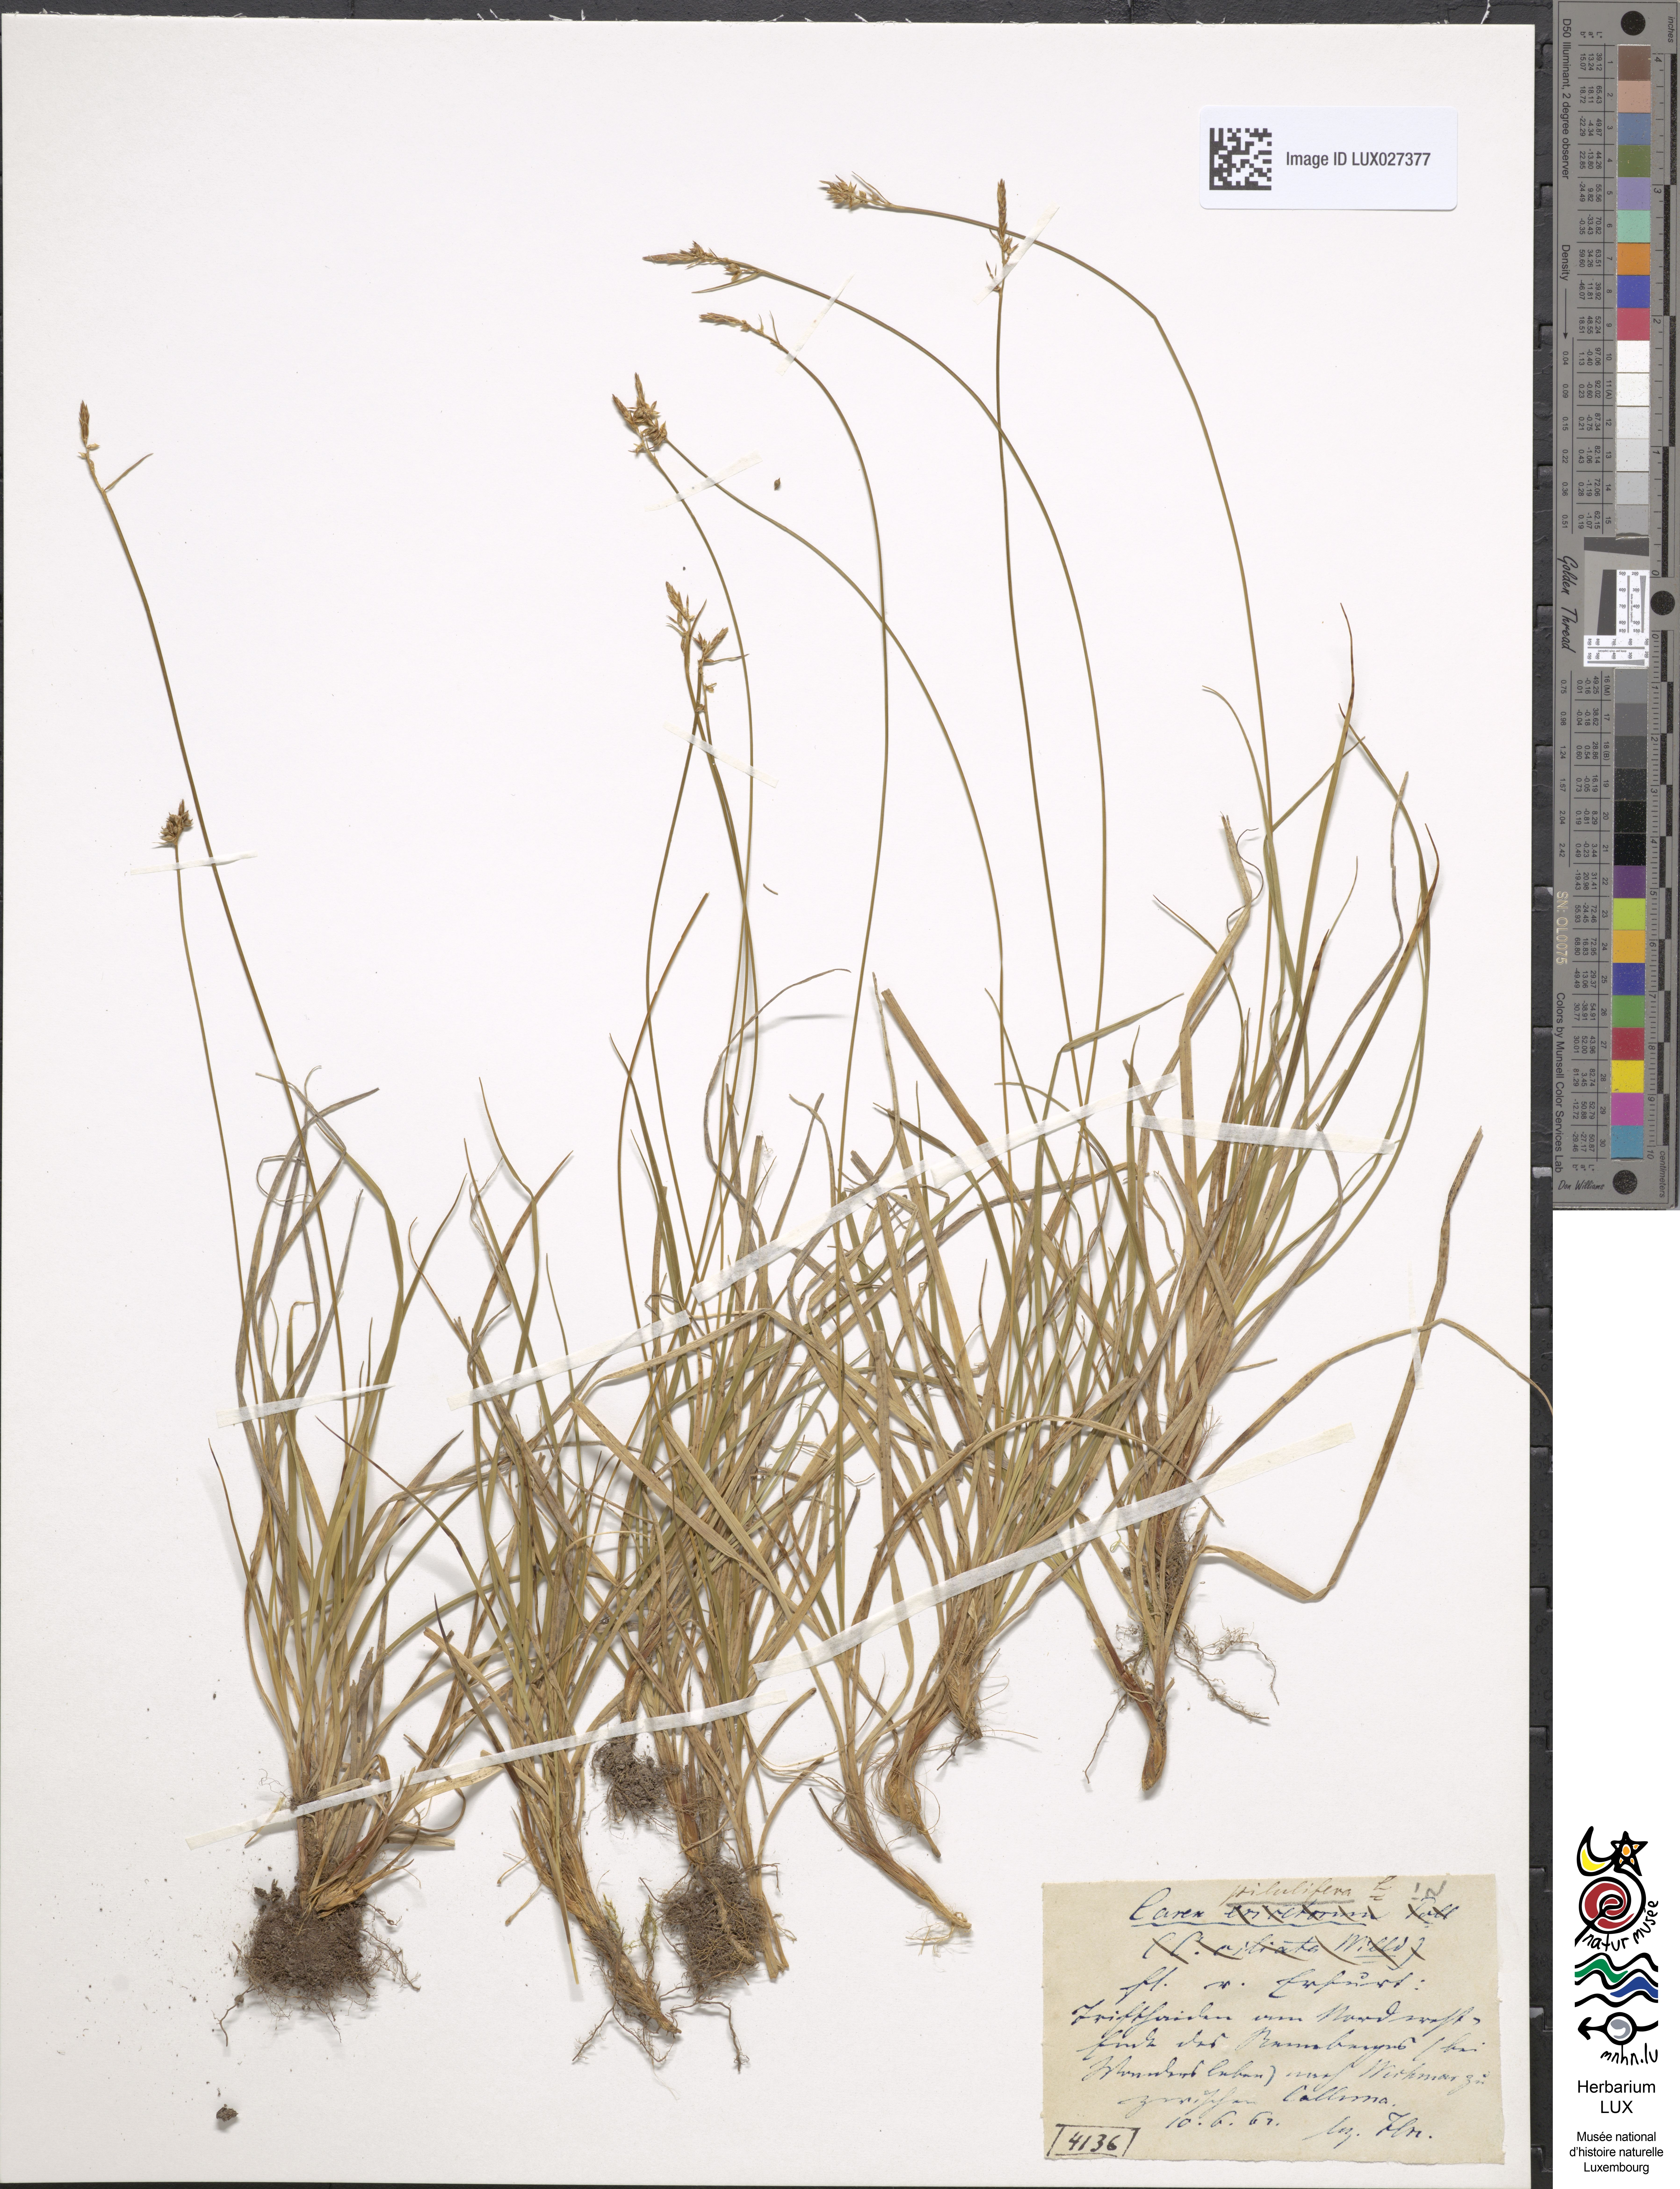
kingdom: Plantae
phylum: Tracheophyta
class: Liliopsida
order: Poales
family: Cyperaceae
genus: Carex
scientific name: Carex pilulifera
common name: Pill sedge
